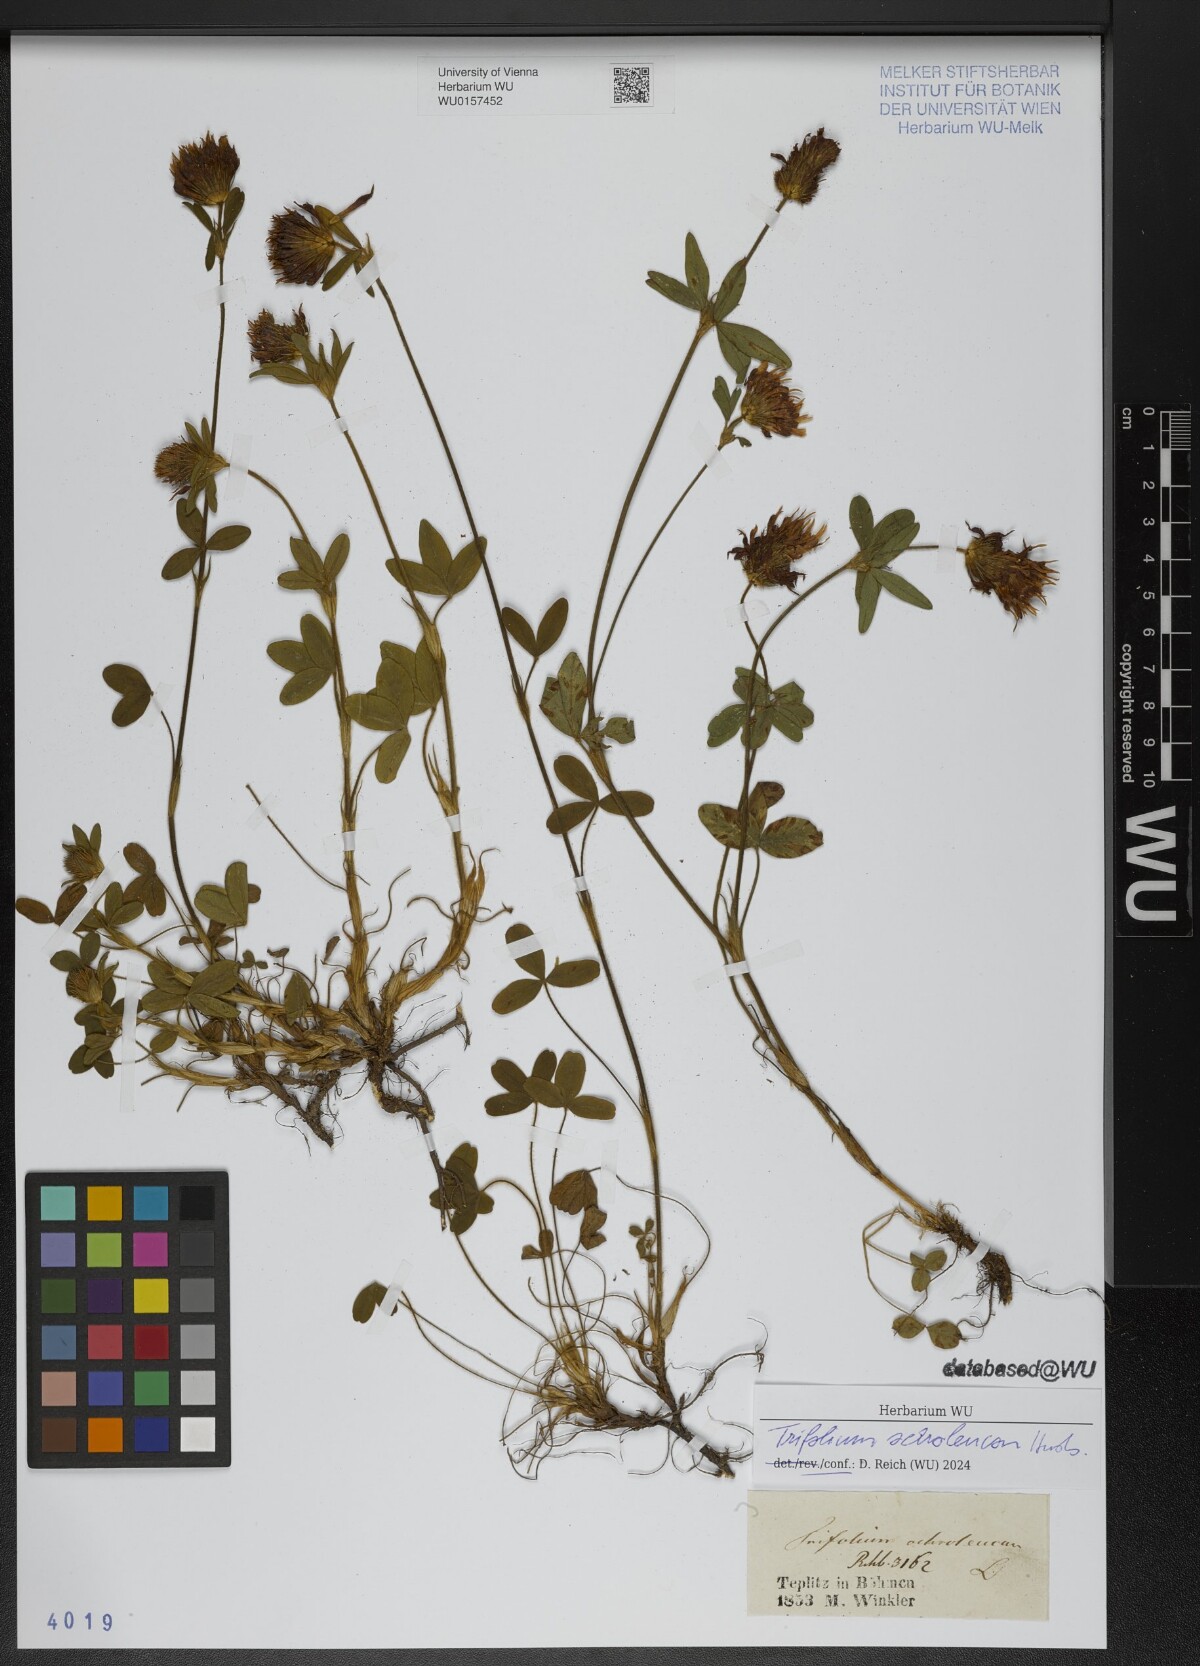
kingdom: Plantae
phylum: Tracheophyta
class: Magnoliopsida
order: Fabales
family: Fabaceae
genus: Trifolium
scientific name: Trifolium ochroleucon
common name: Sulphur clover
